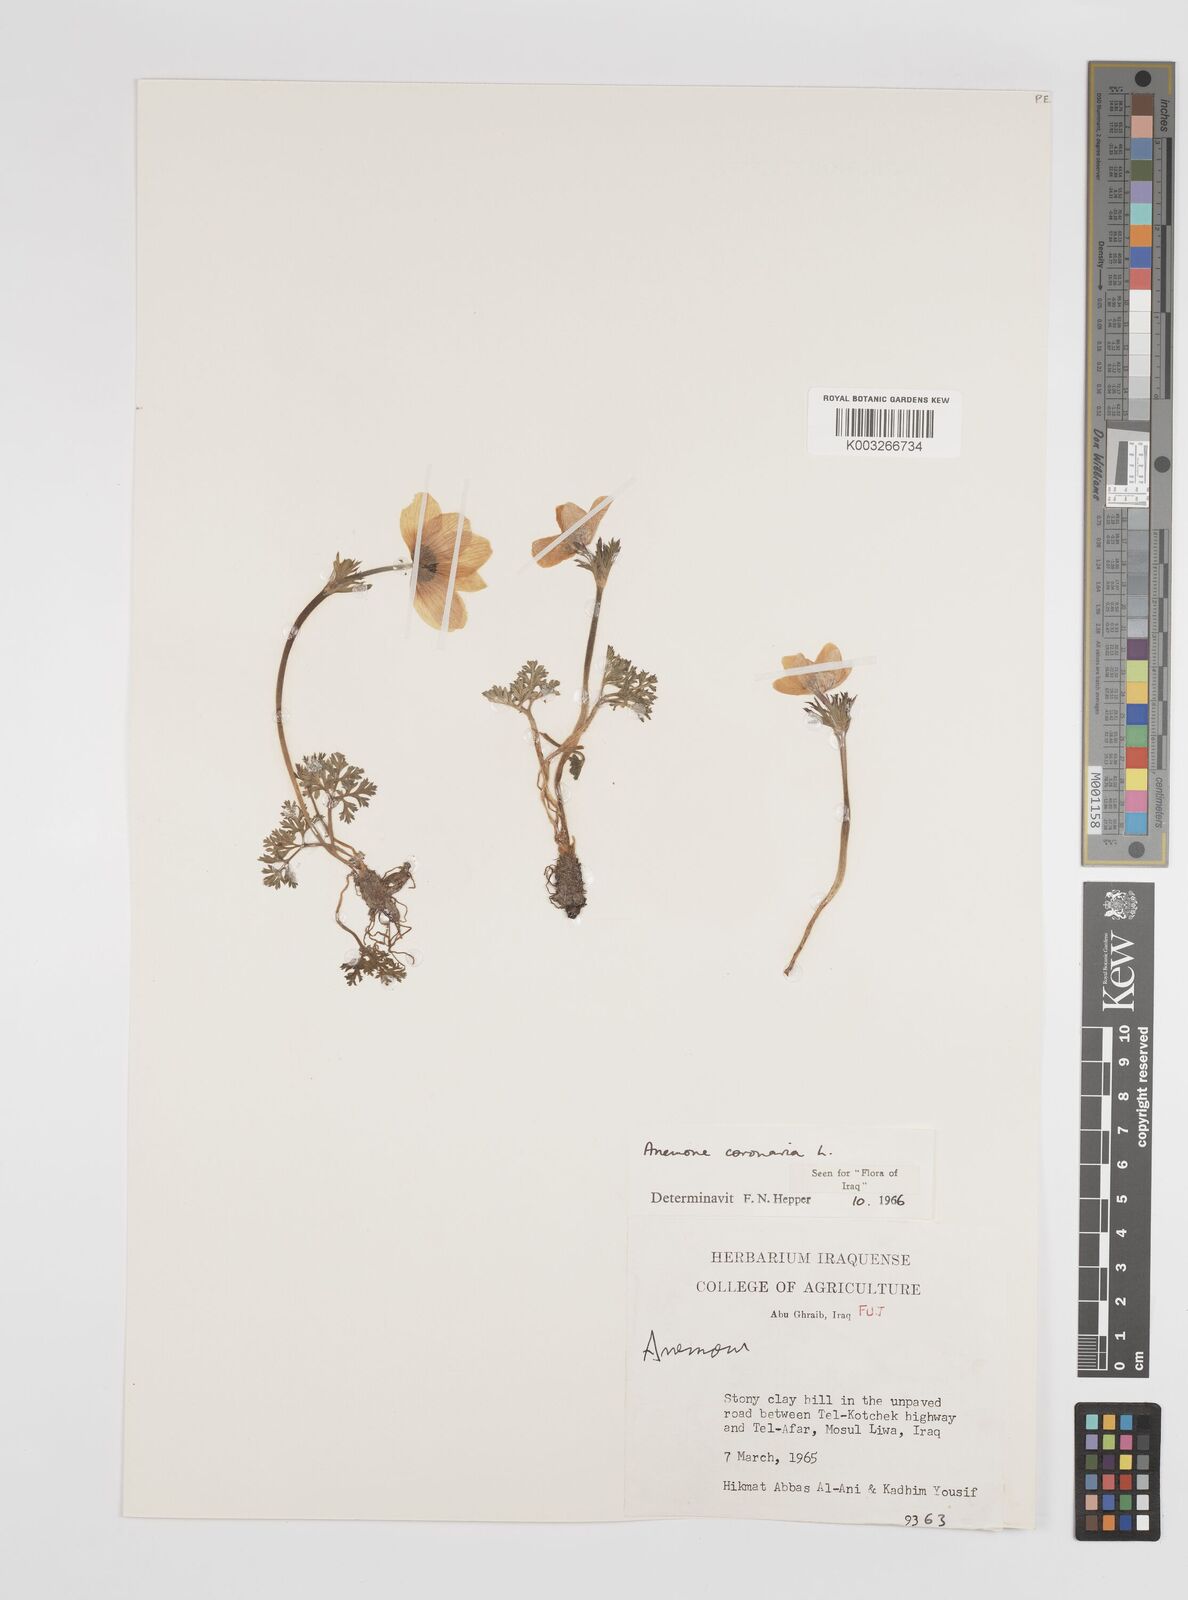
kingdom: Plantae
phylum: Tracheophyta
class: Magnoliopsida
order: Ranunculales
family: Ranunculaceae
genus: Anemone
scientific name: Anemone coronaria
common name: Poppy anemone
